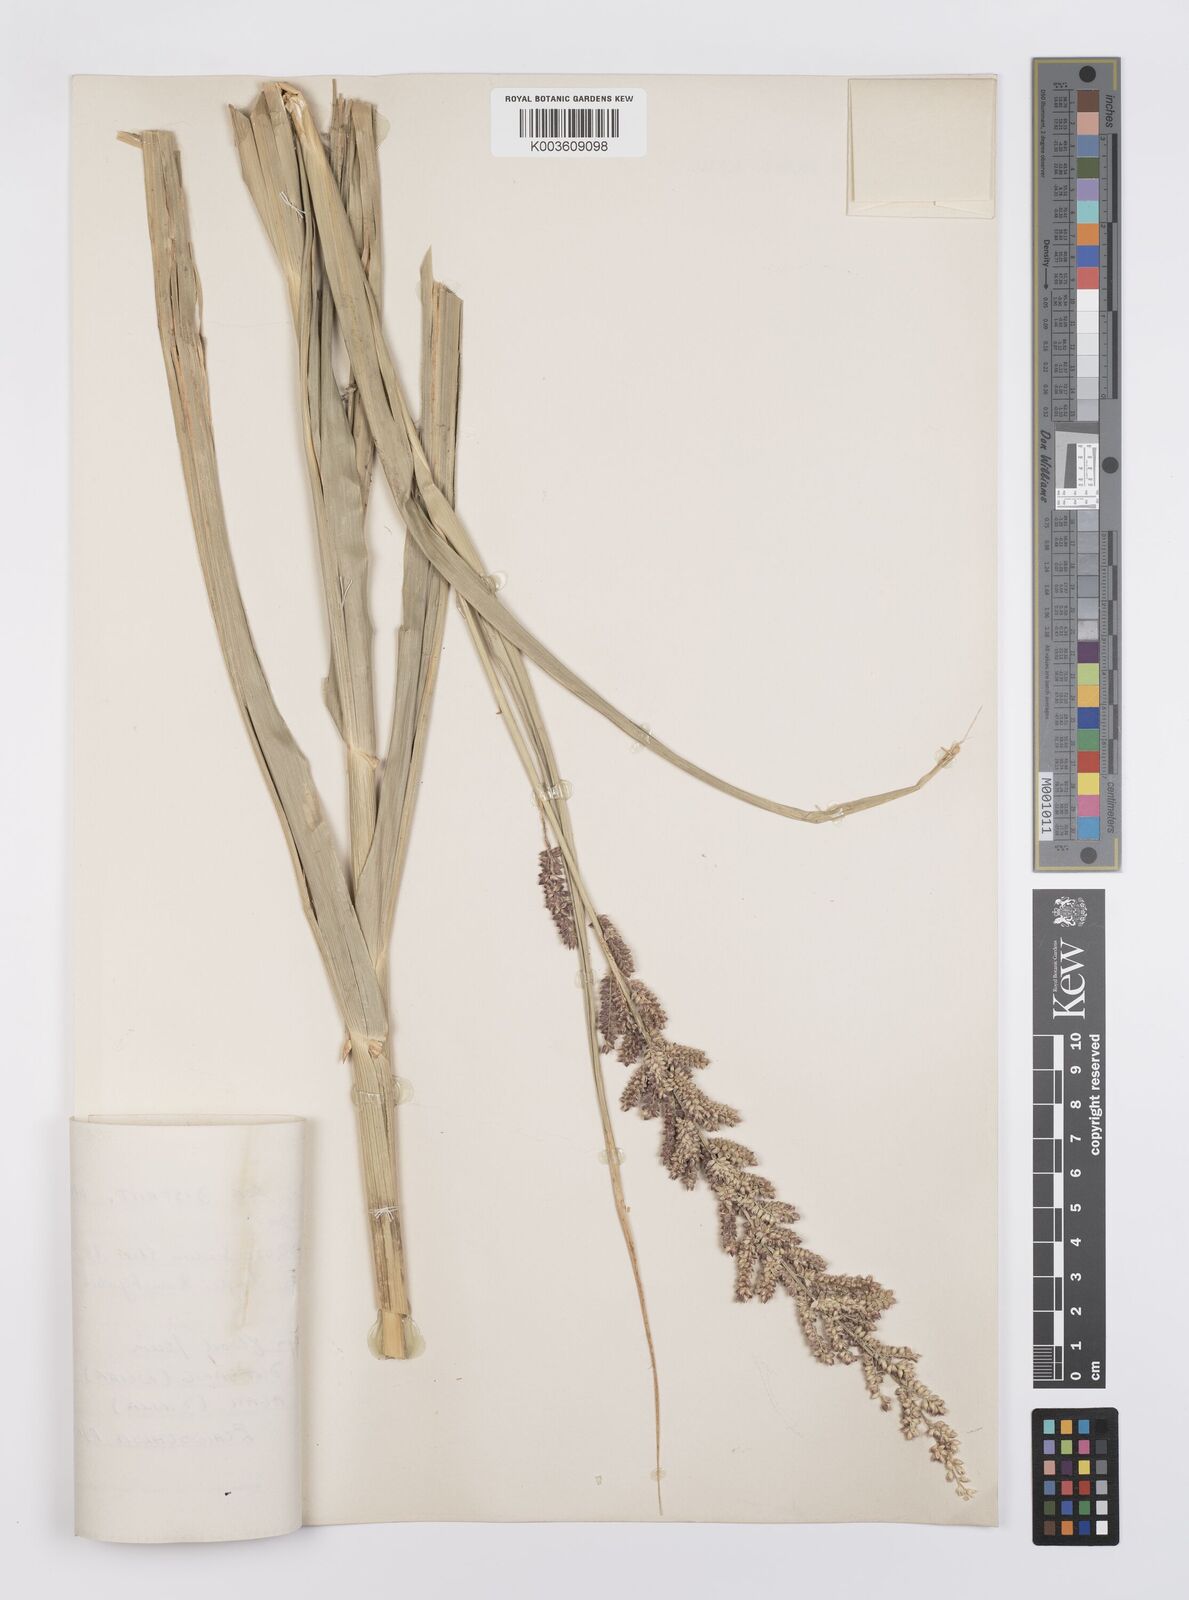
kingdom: Plantae
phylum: Tracheophyta
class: Liliopsida
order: Poales
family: Poaceae
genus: Echinochloa
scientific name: Echinochloa pyramidalis
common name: Antelope grass
